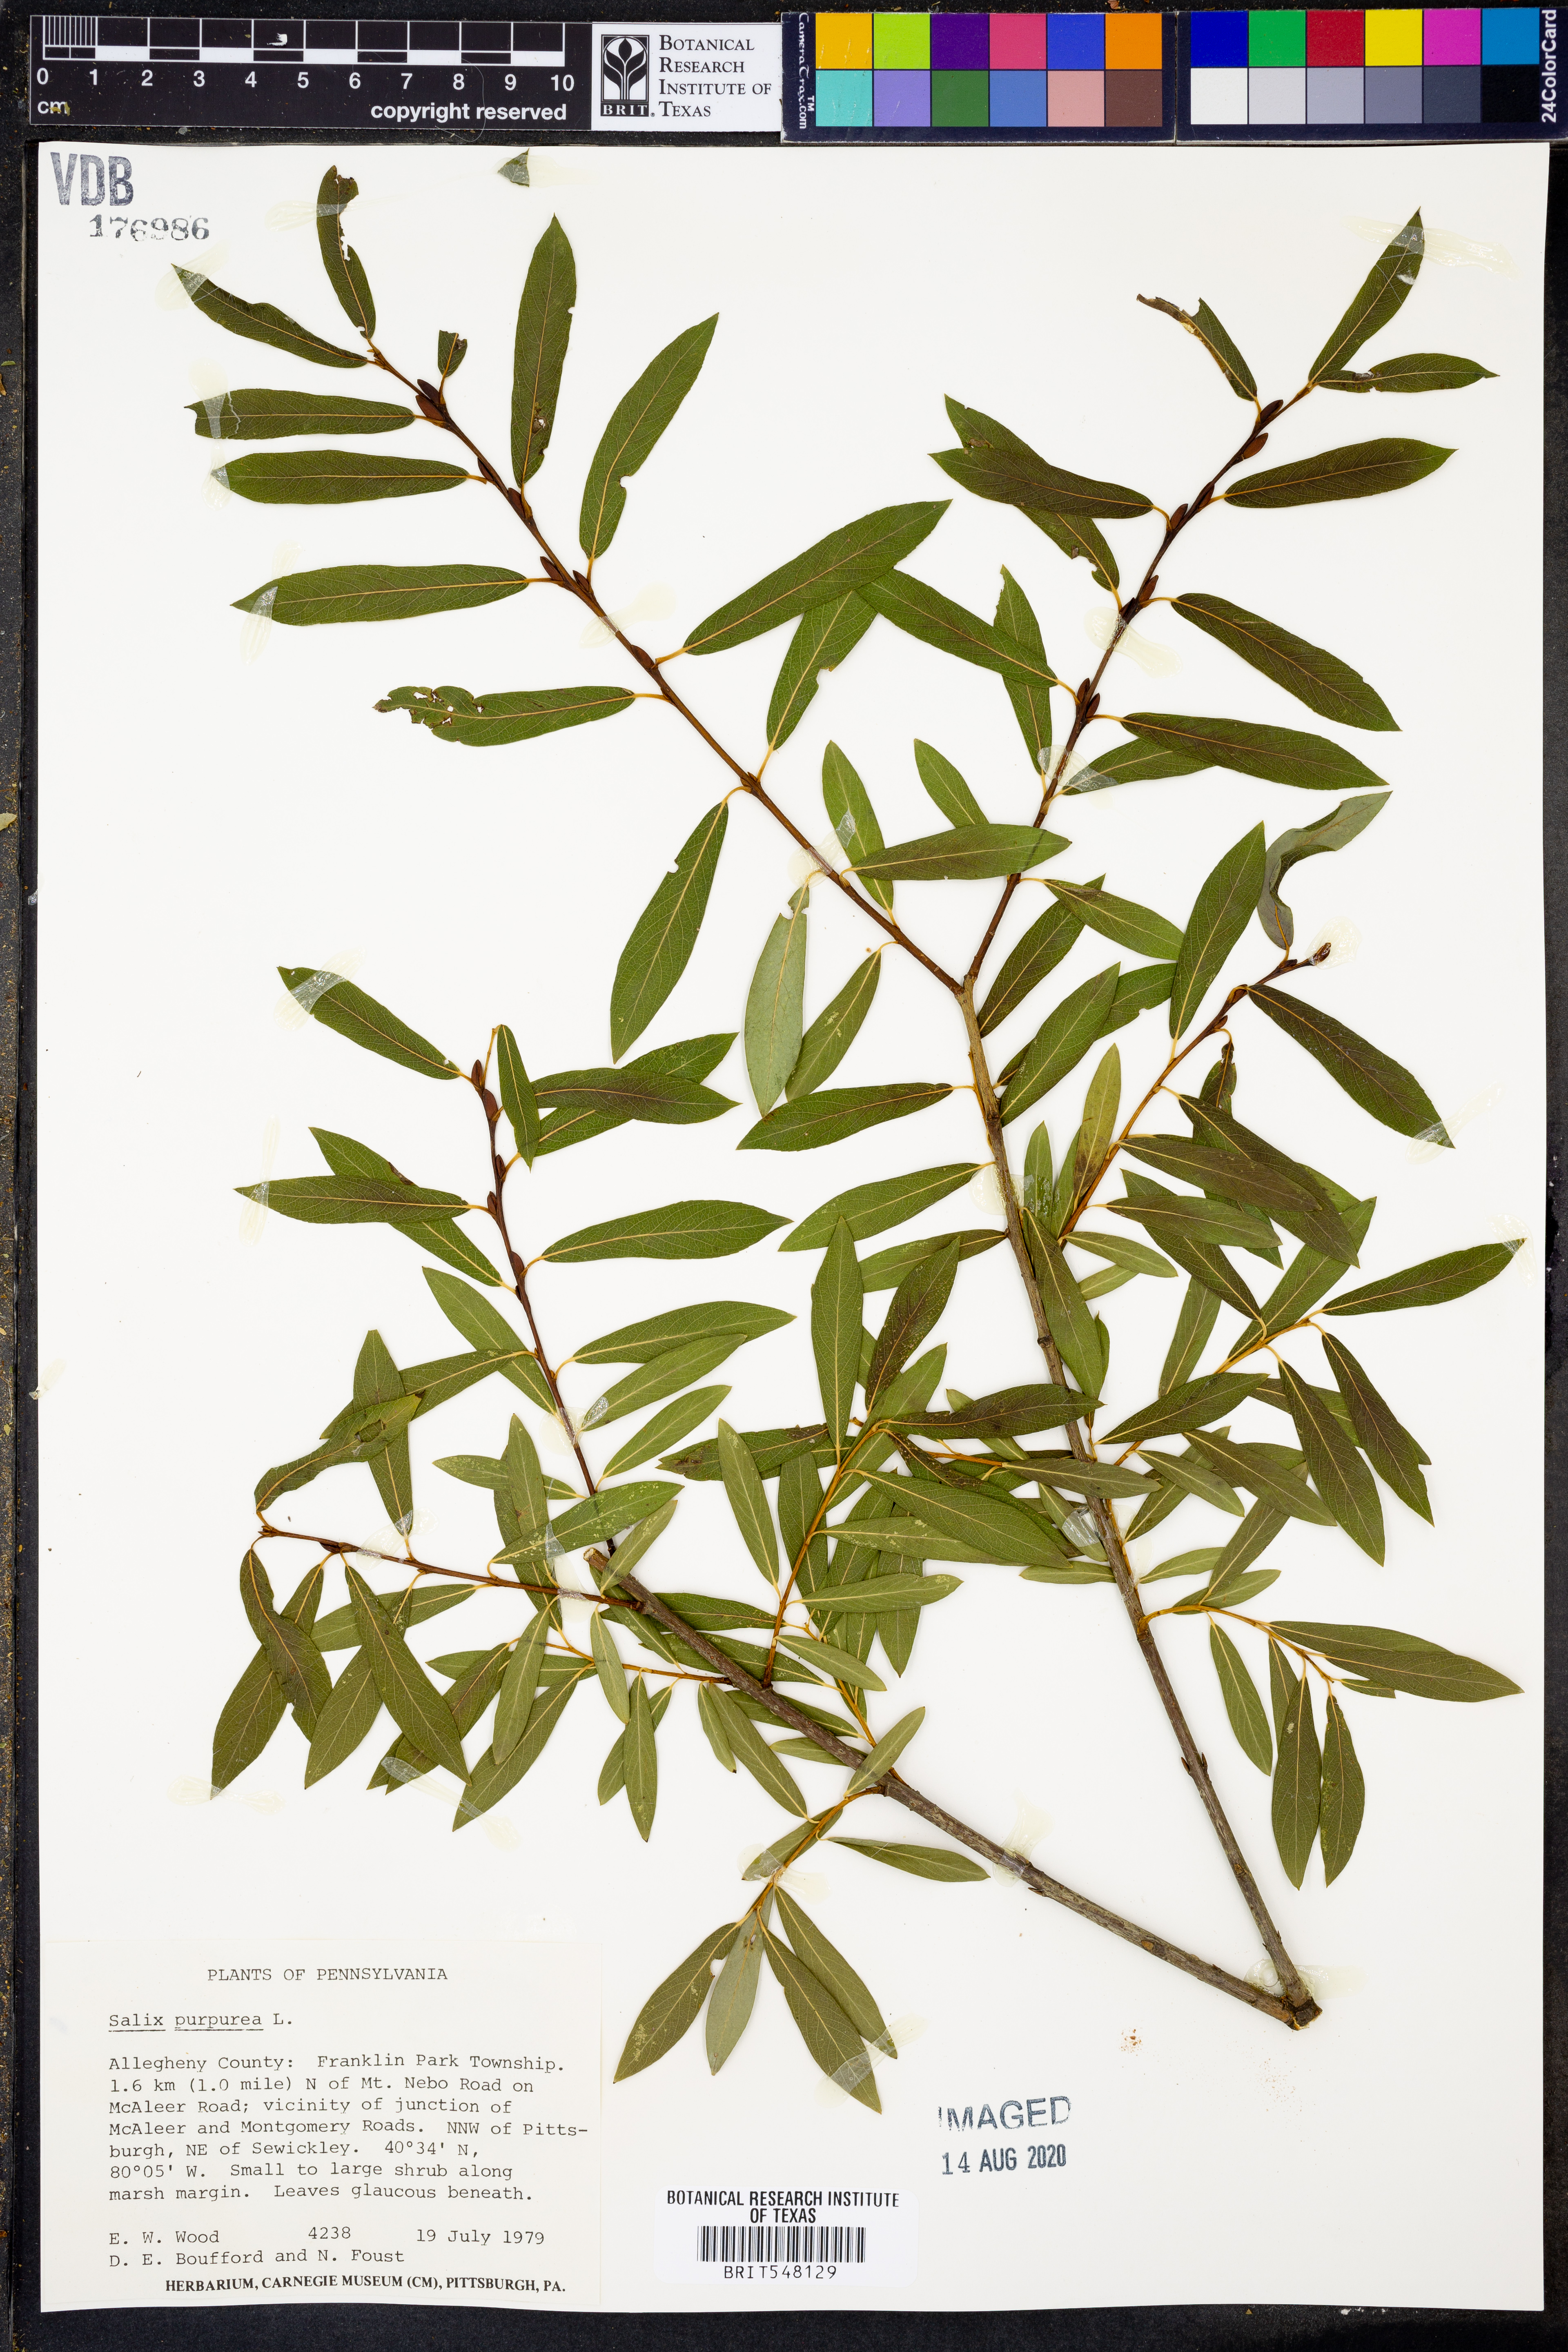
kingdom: Plantae
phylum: Tracheophyta
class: Magnoliopsida
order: Malpighiales
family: Salicaceae
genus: Salix
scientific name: Salix purpurea
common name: Purple willow
